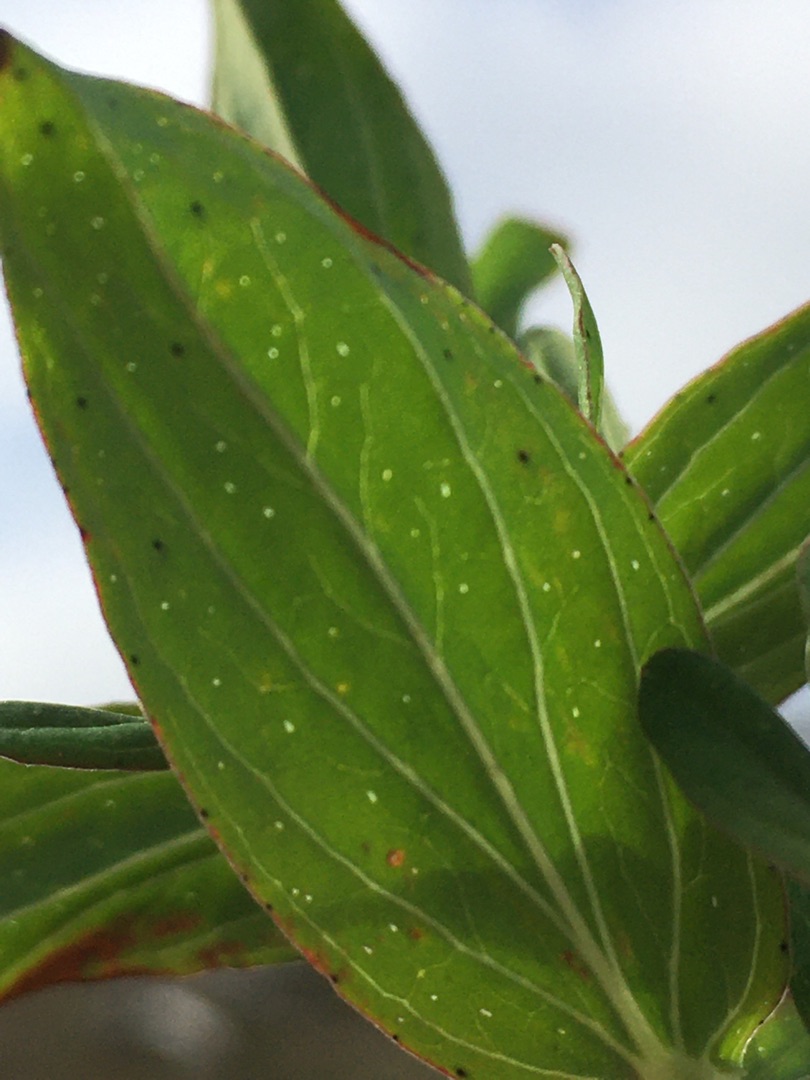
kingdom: Plantae
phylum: Tracheophyta
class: Magnoliopsida
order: Malpighiales
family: Hypericaceae
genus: Hypericum
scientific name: Hypericum perforatum
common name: Prikbladet perikon
